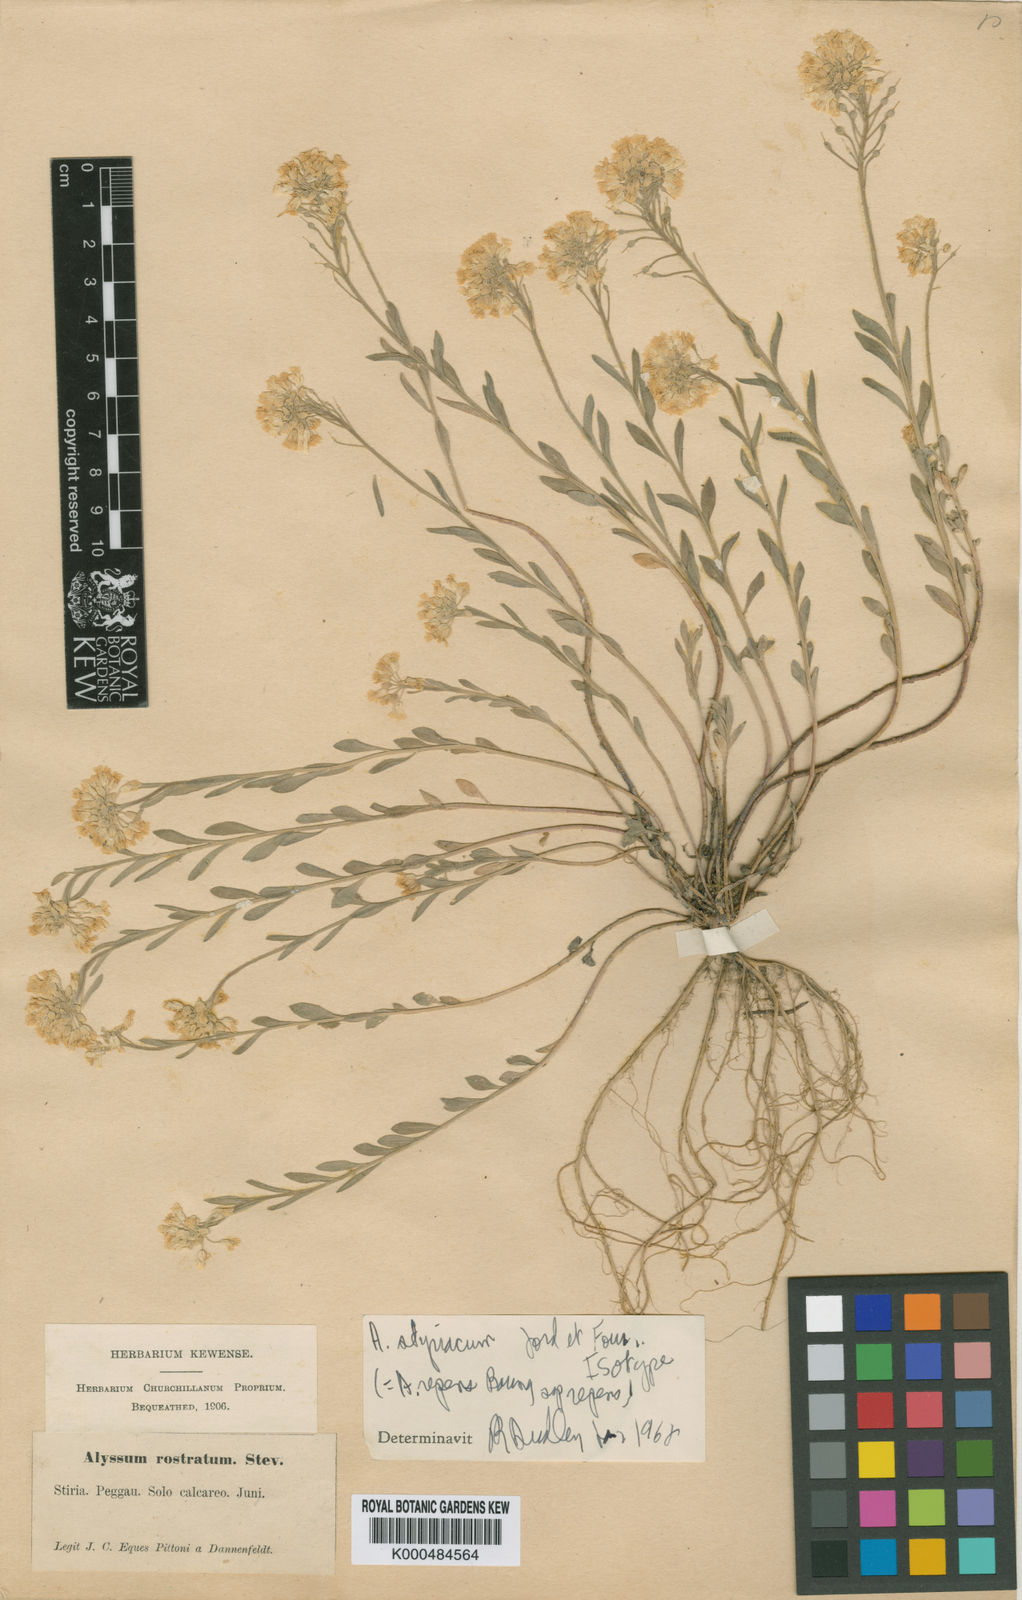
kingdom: Plantae
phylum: Tracheophyta
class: Magnoliopsida
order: Brassicales
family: Brassicaceae
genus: Alyssum
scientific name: Alyssum repens
